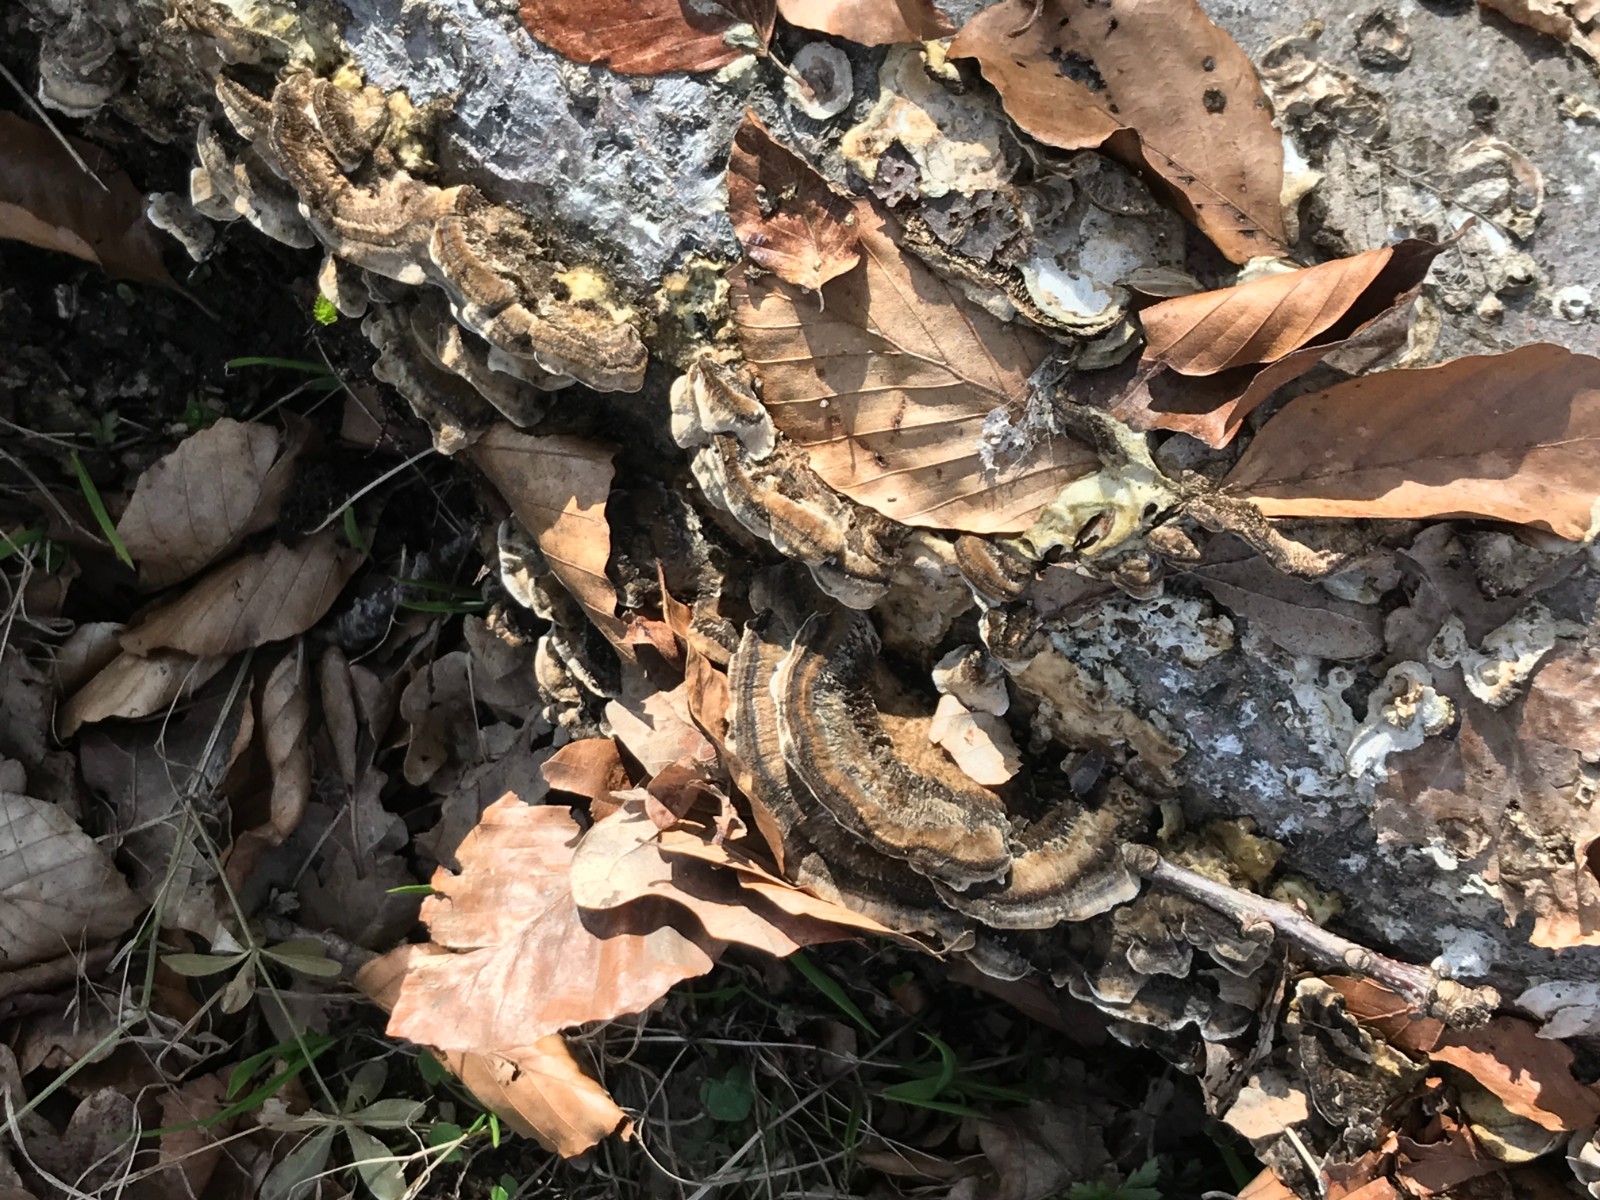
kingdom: Fungi
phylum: Basidiomycota
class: Agaricomycetes
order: Polyporales
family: Phanerochaetaceae
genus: Bjerkandera
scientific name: Bjerkandera adusta
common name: sveden sodporesvamp
